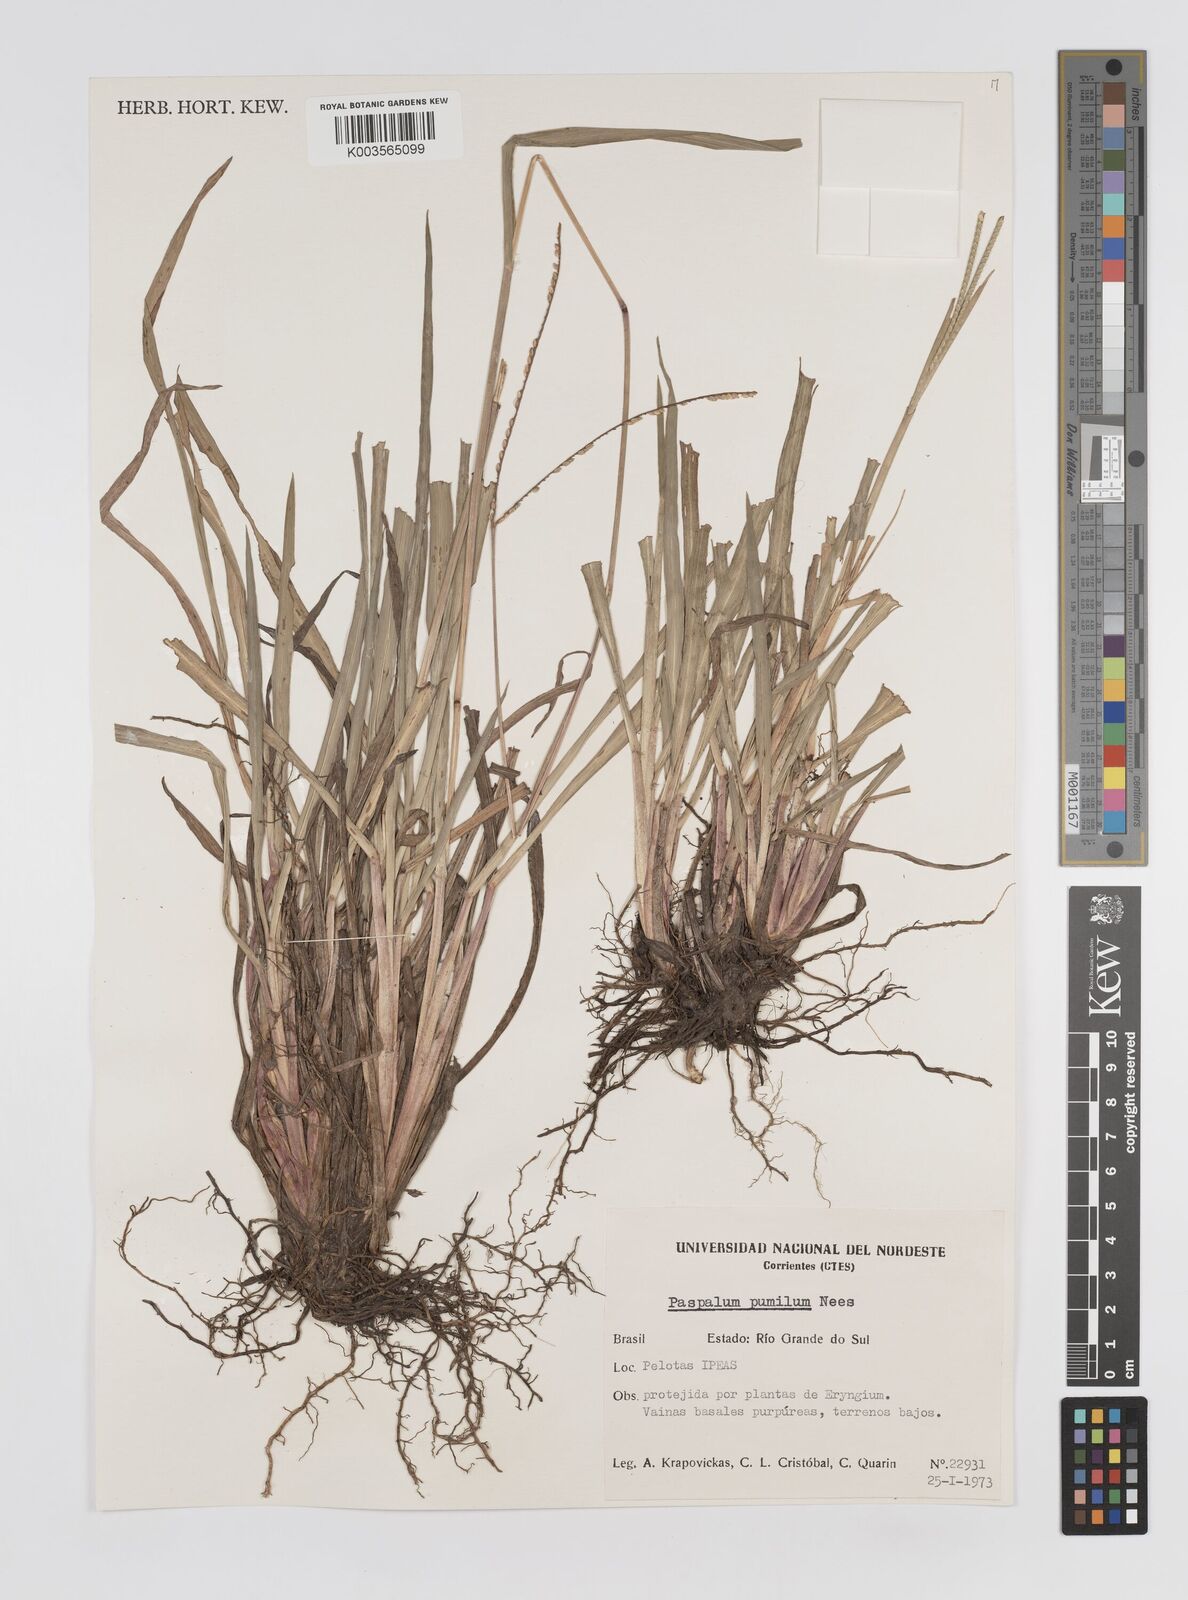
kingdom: Plantae
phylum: Tracheophyta
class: Liliopsida
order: Poales
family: Poaceae
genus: Paspalum
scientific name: Paspalum pumilum
